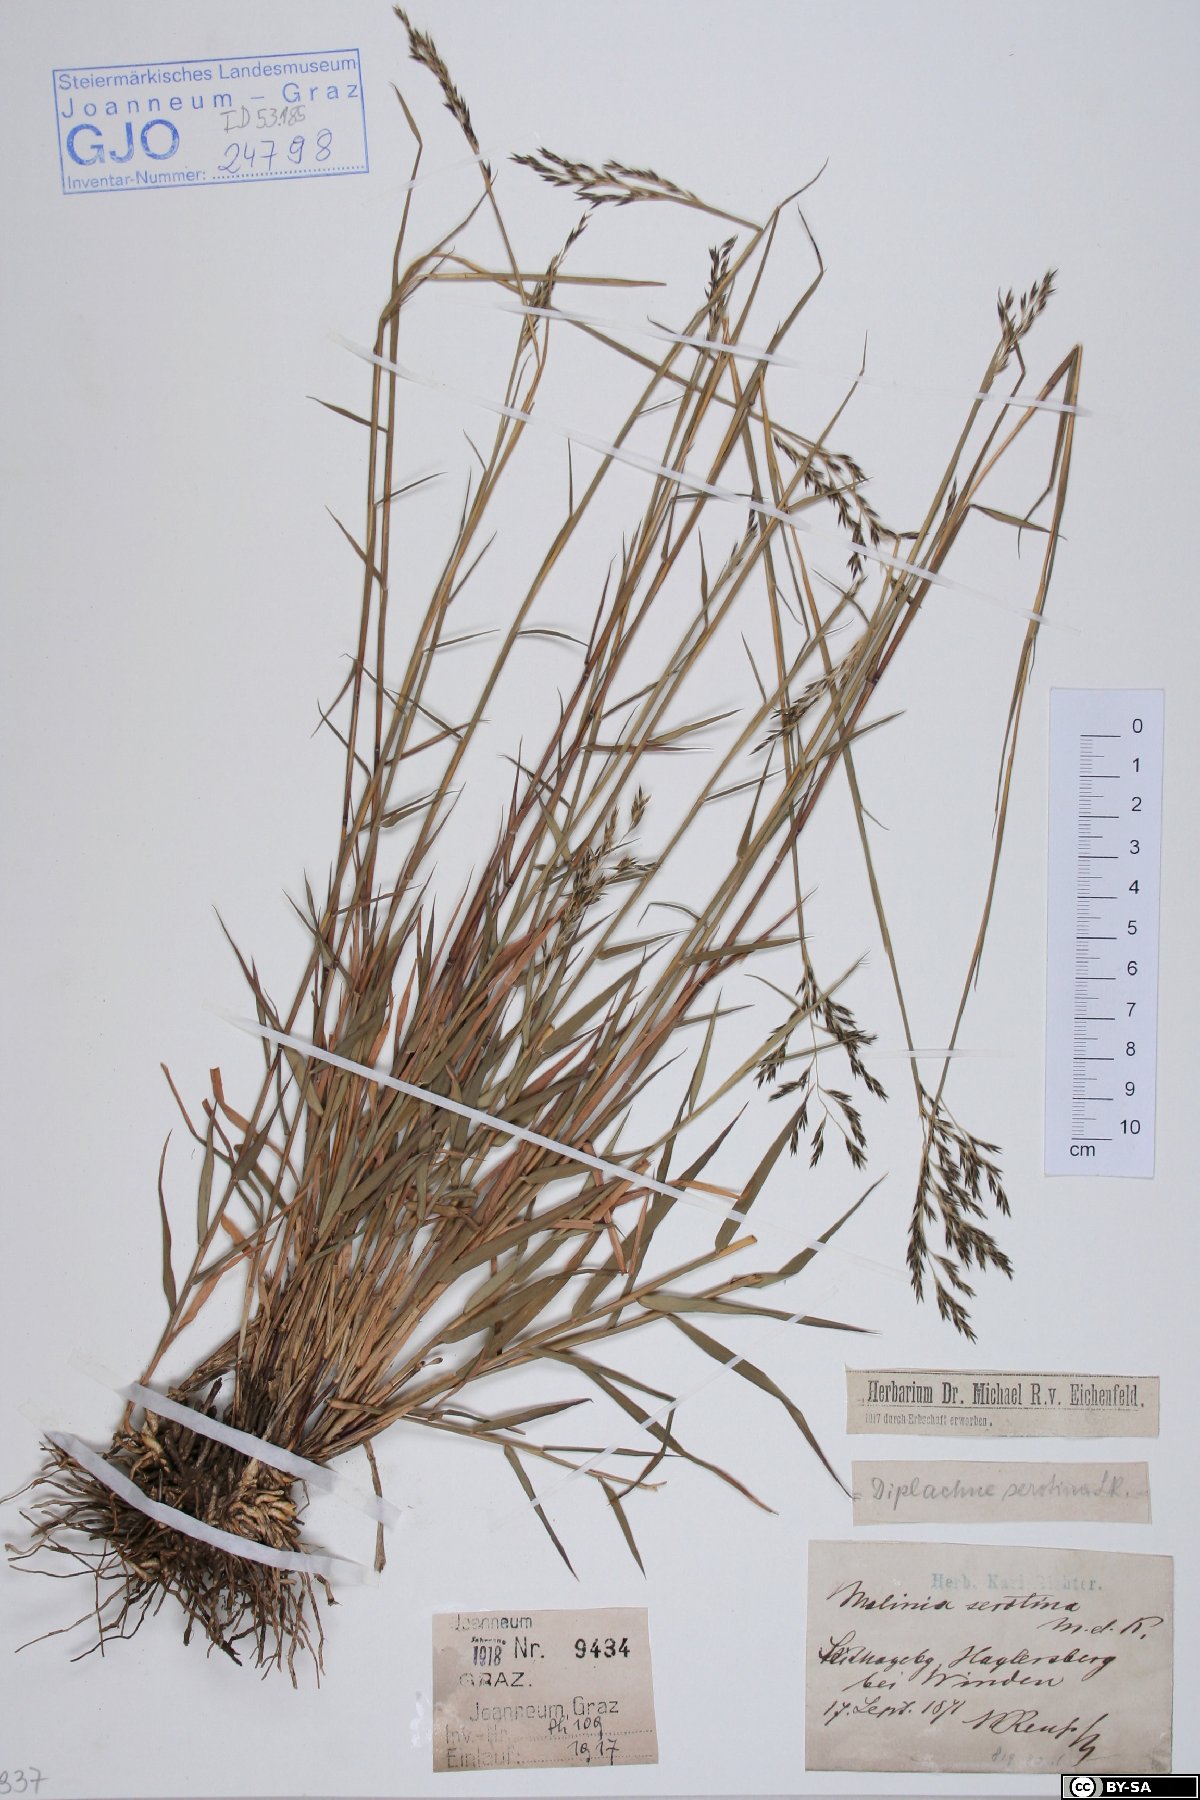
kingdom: Plantae
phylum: Tracheophyta
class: Liliopsida
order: Poales
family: Poaceae
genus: Cleistogenes
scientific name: Cleistogenes serotina
